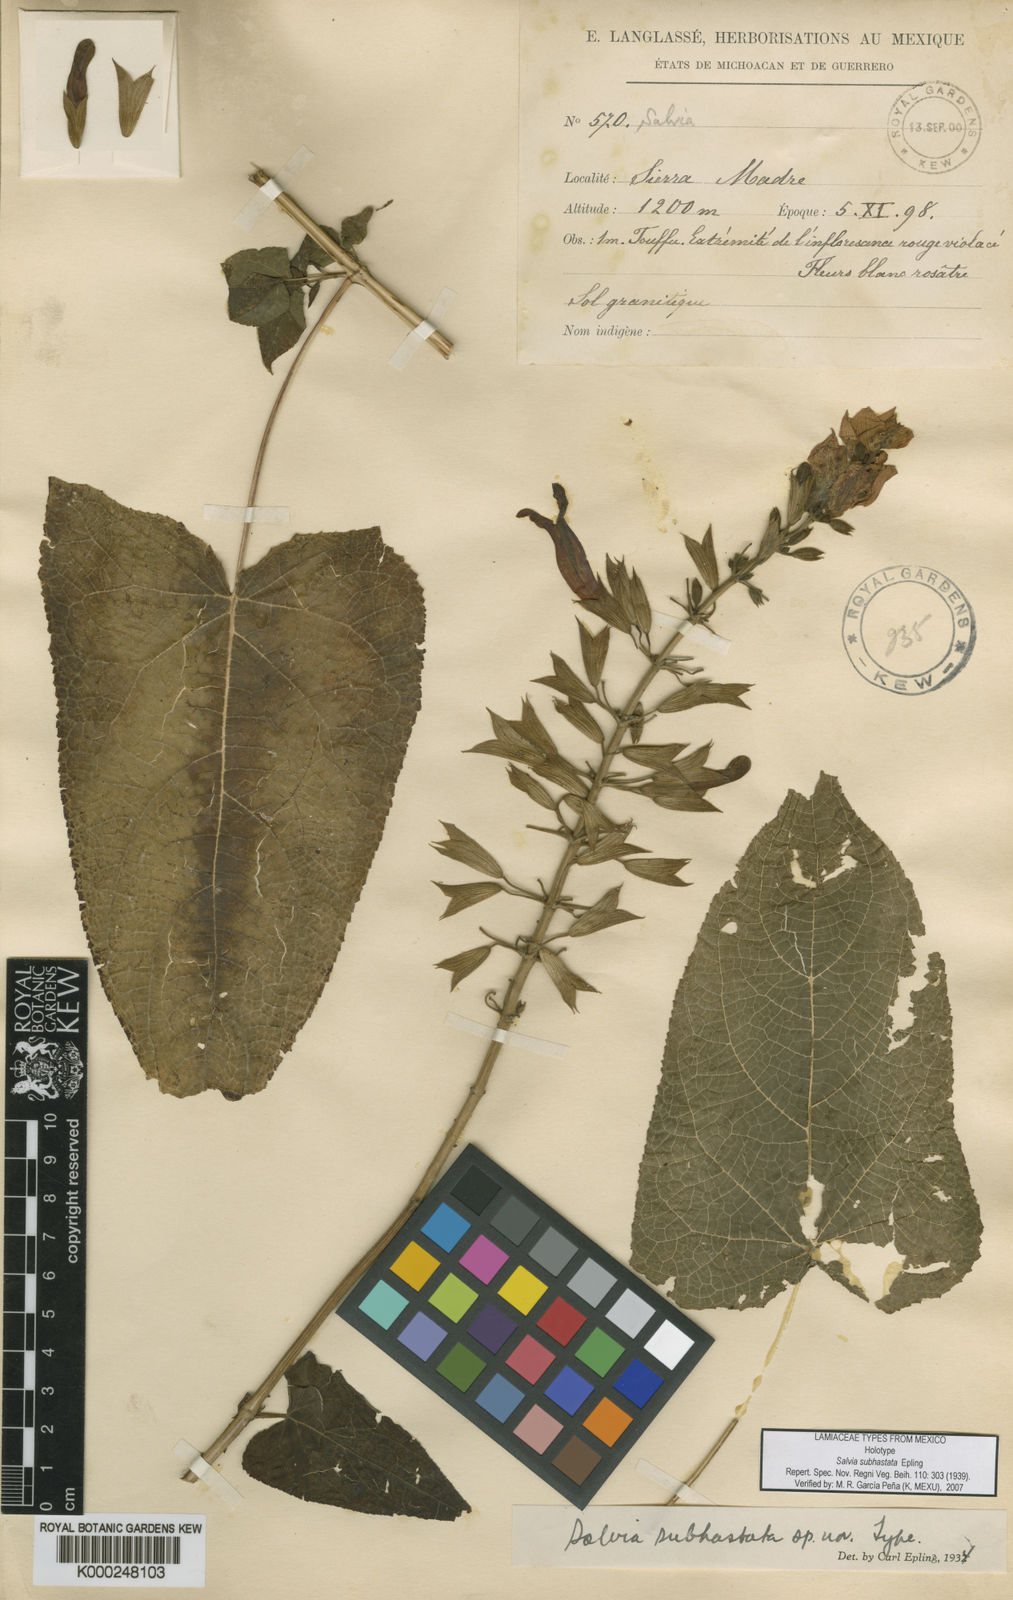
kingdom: Plantae
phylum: Tracheophyta
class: Magnoliopsida
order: Lamiales
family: Lamiaceae
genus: Salvia
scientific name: Salvia subhastata
